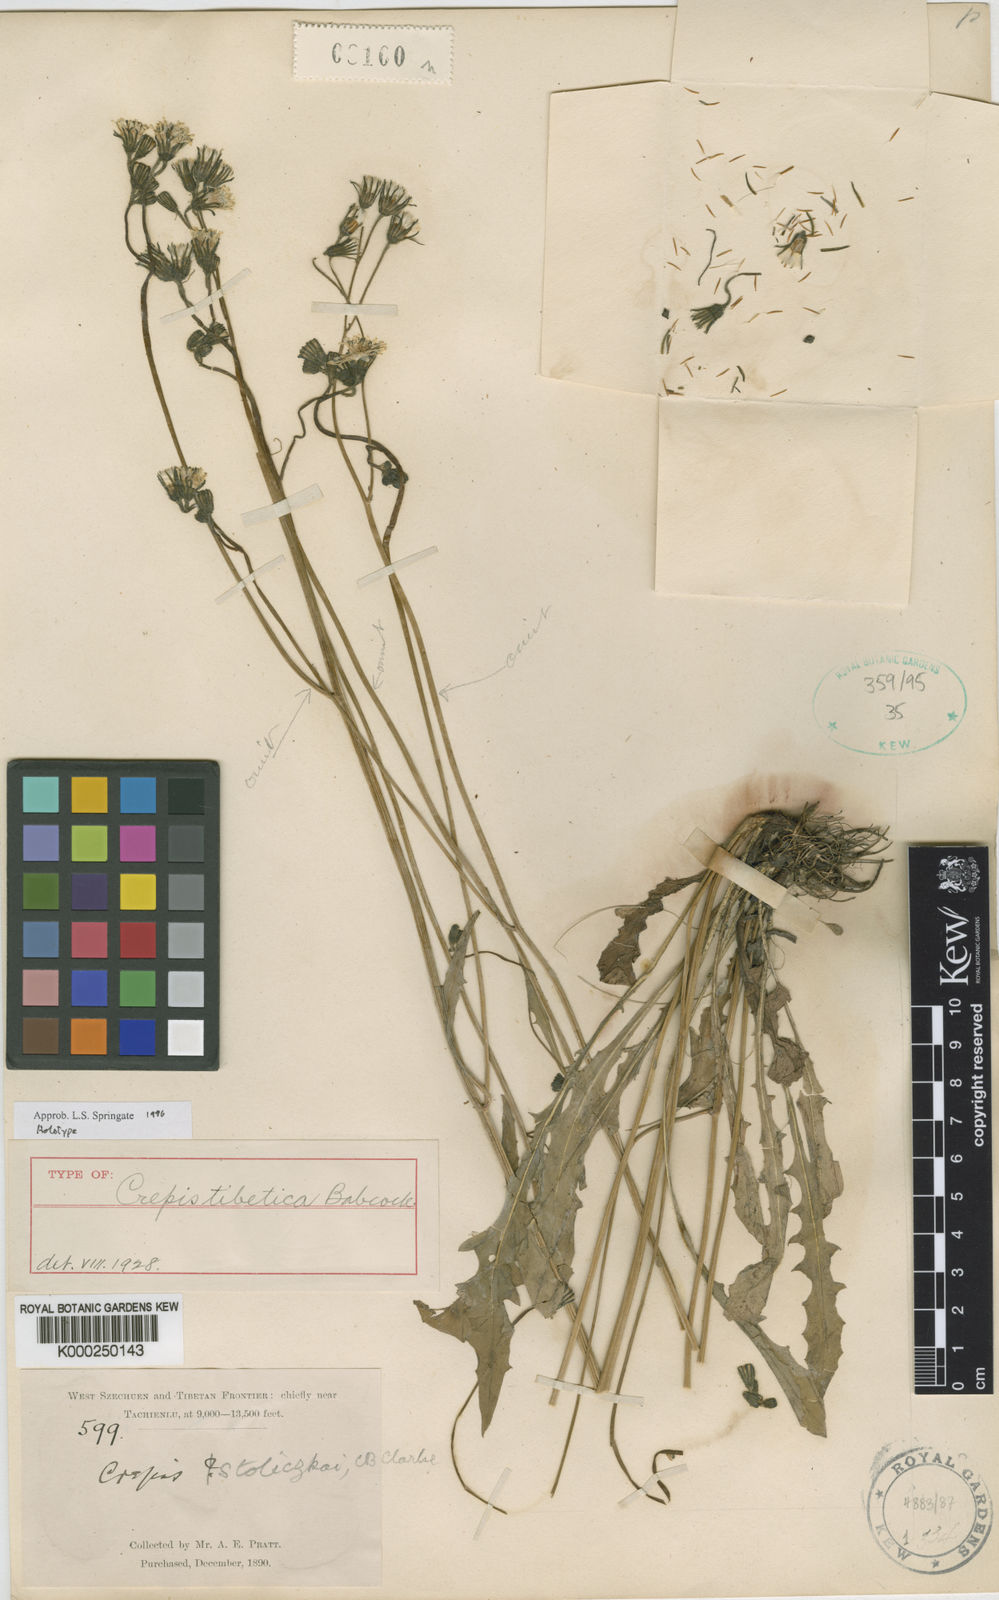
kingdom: Plantae
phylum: Tracheophyta
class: Magnoliopsida
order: Asterales
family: Asteraceae
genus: Crepis
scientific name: Crepis elongata
